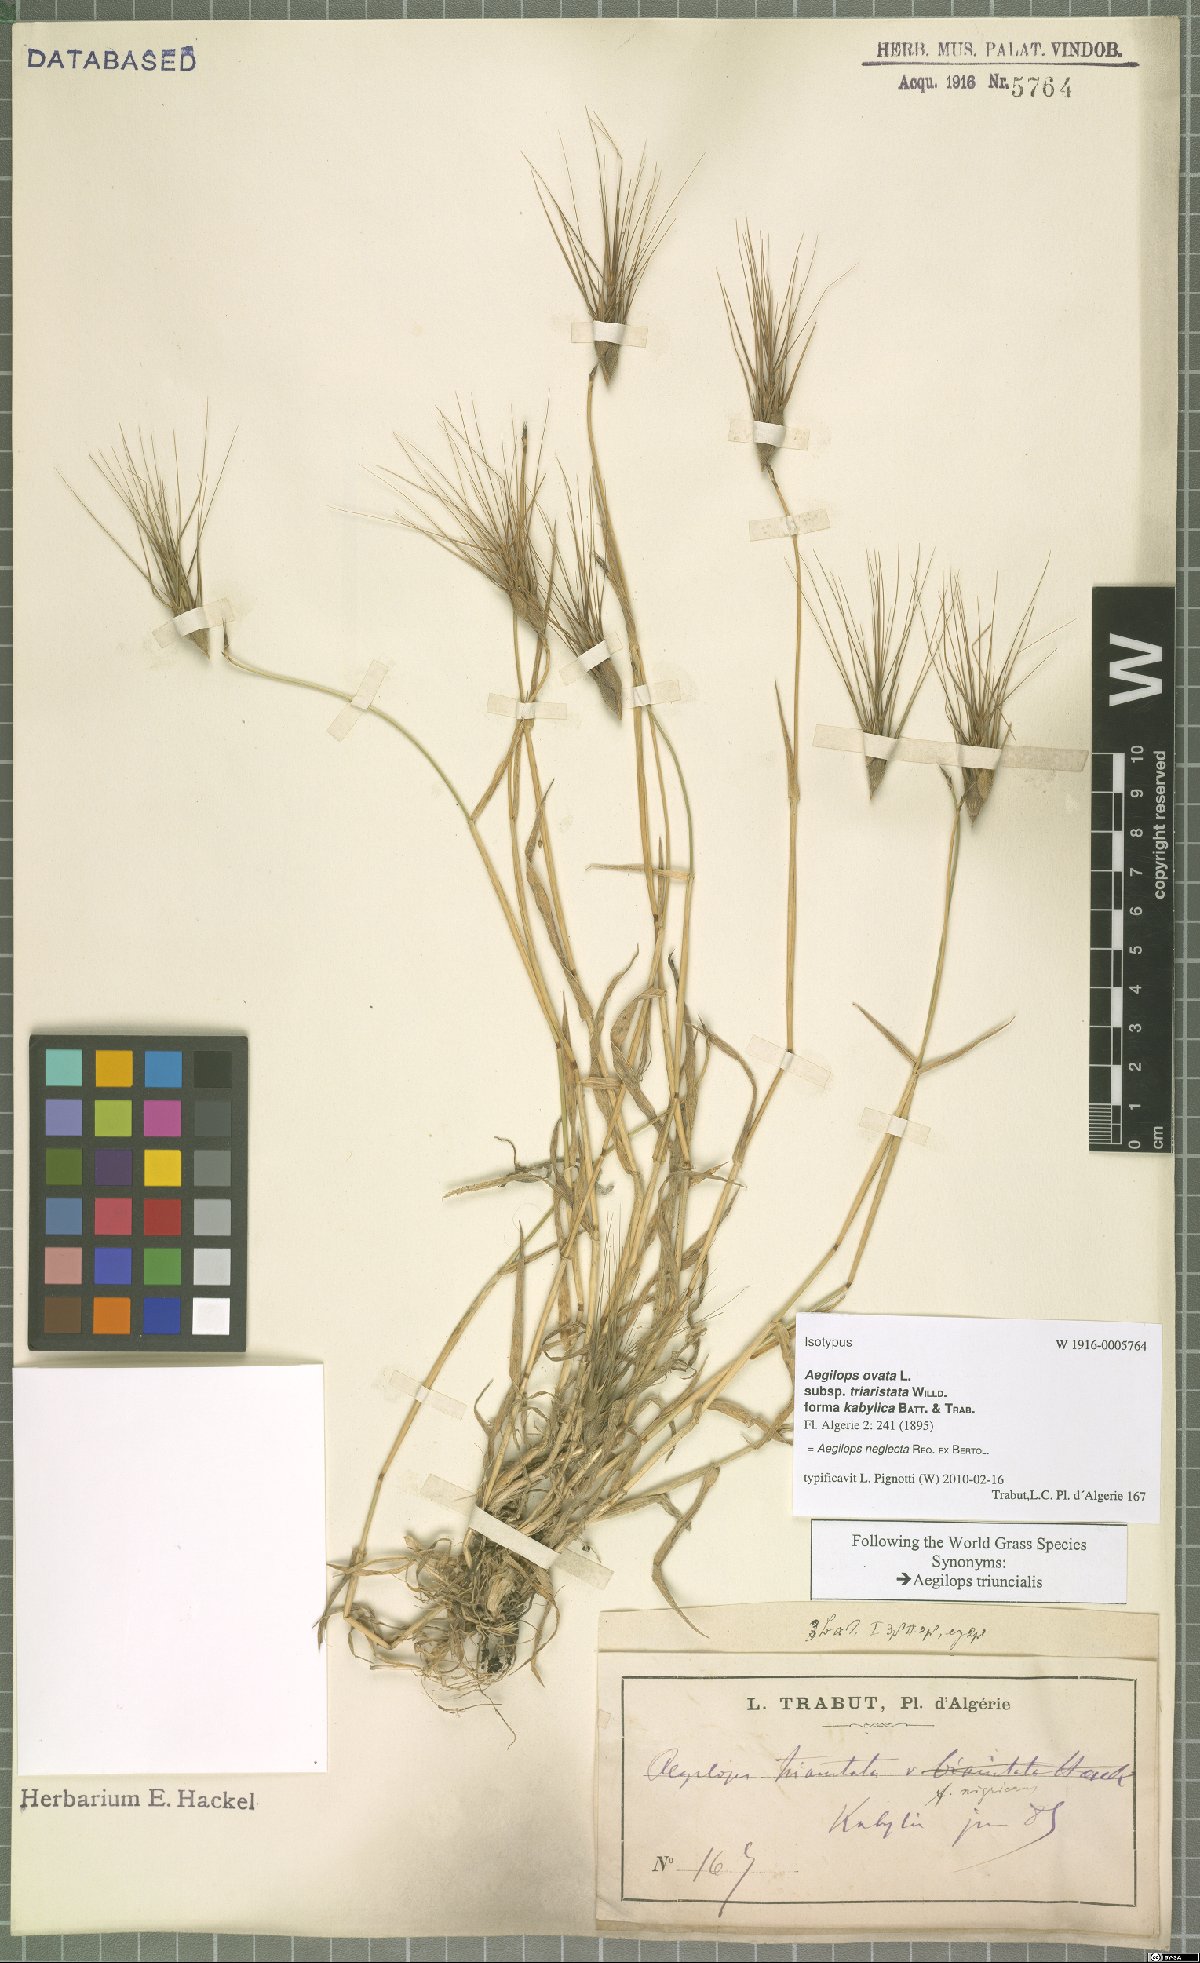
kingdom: Plantae
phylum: Tracheophyta
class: Liliopsida
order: Poales
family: Poaceae
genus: Aegilops
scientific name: Aegilops geniculata
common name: Ovate goat grass
